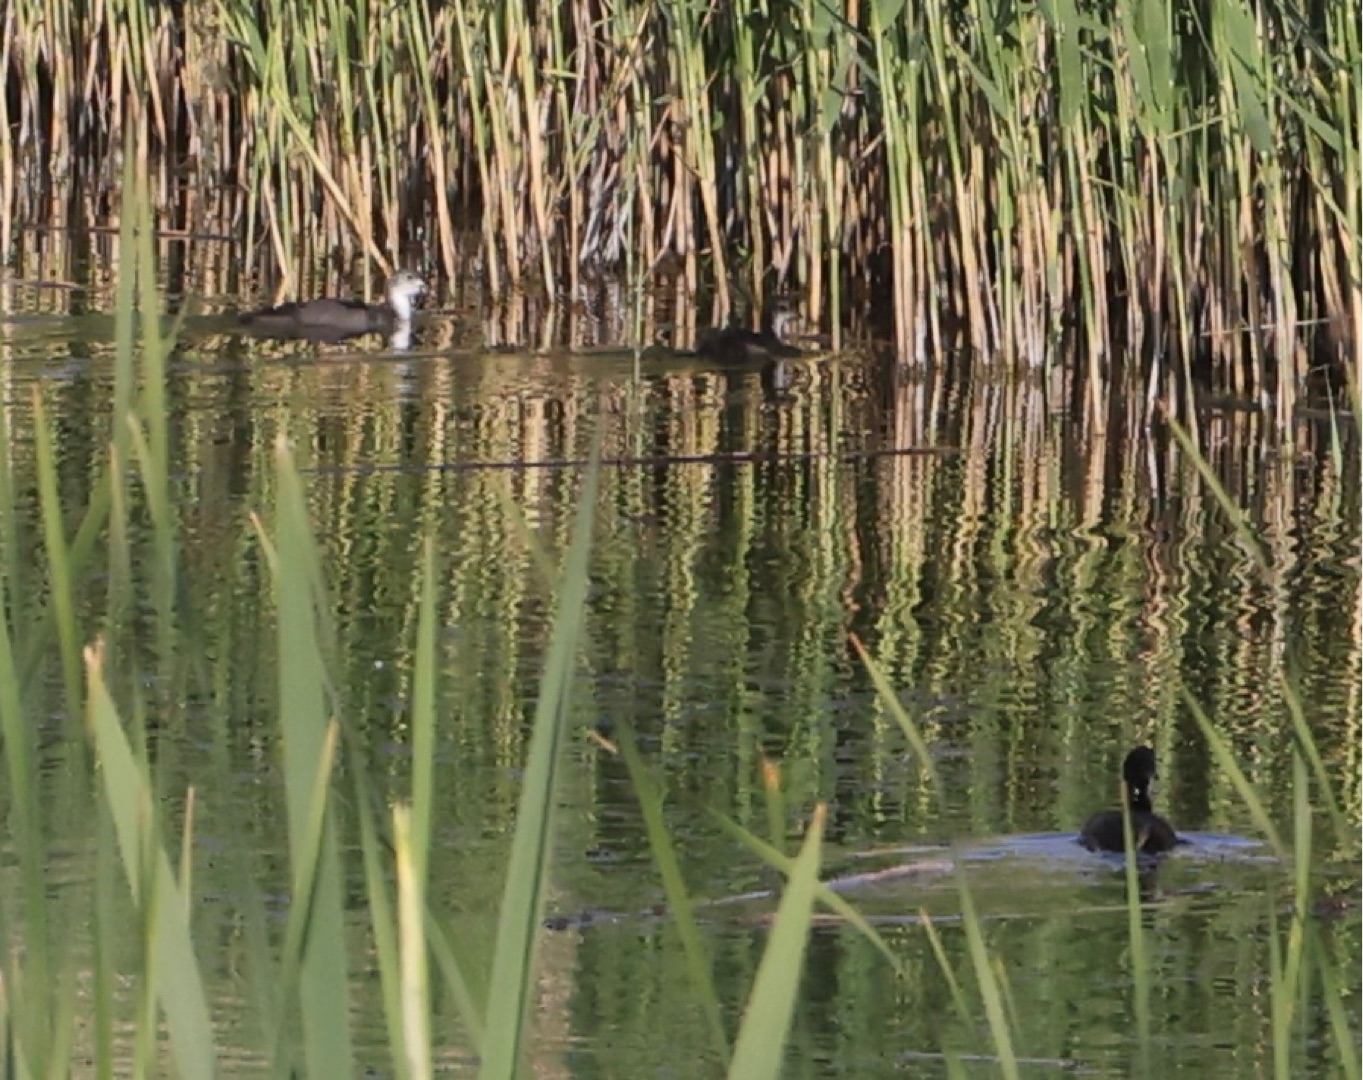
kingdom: Animalia
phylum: Chordata
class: Aves
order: Gruiformes
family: Rallidae
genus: Fulica
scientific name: Fulica atra
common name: Blishøne
